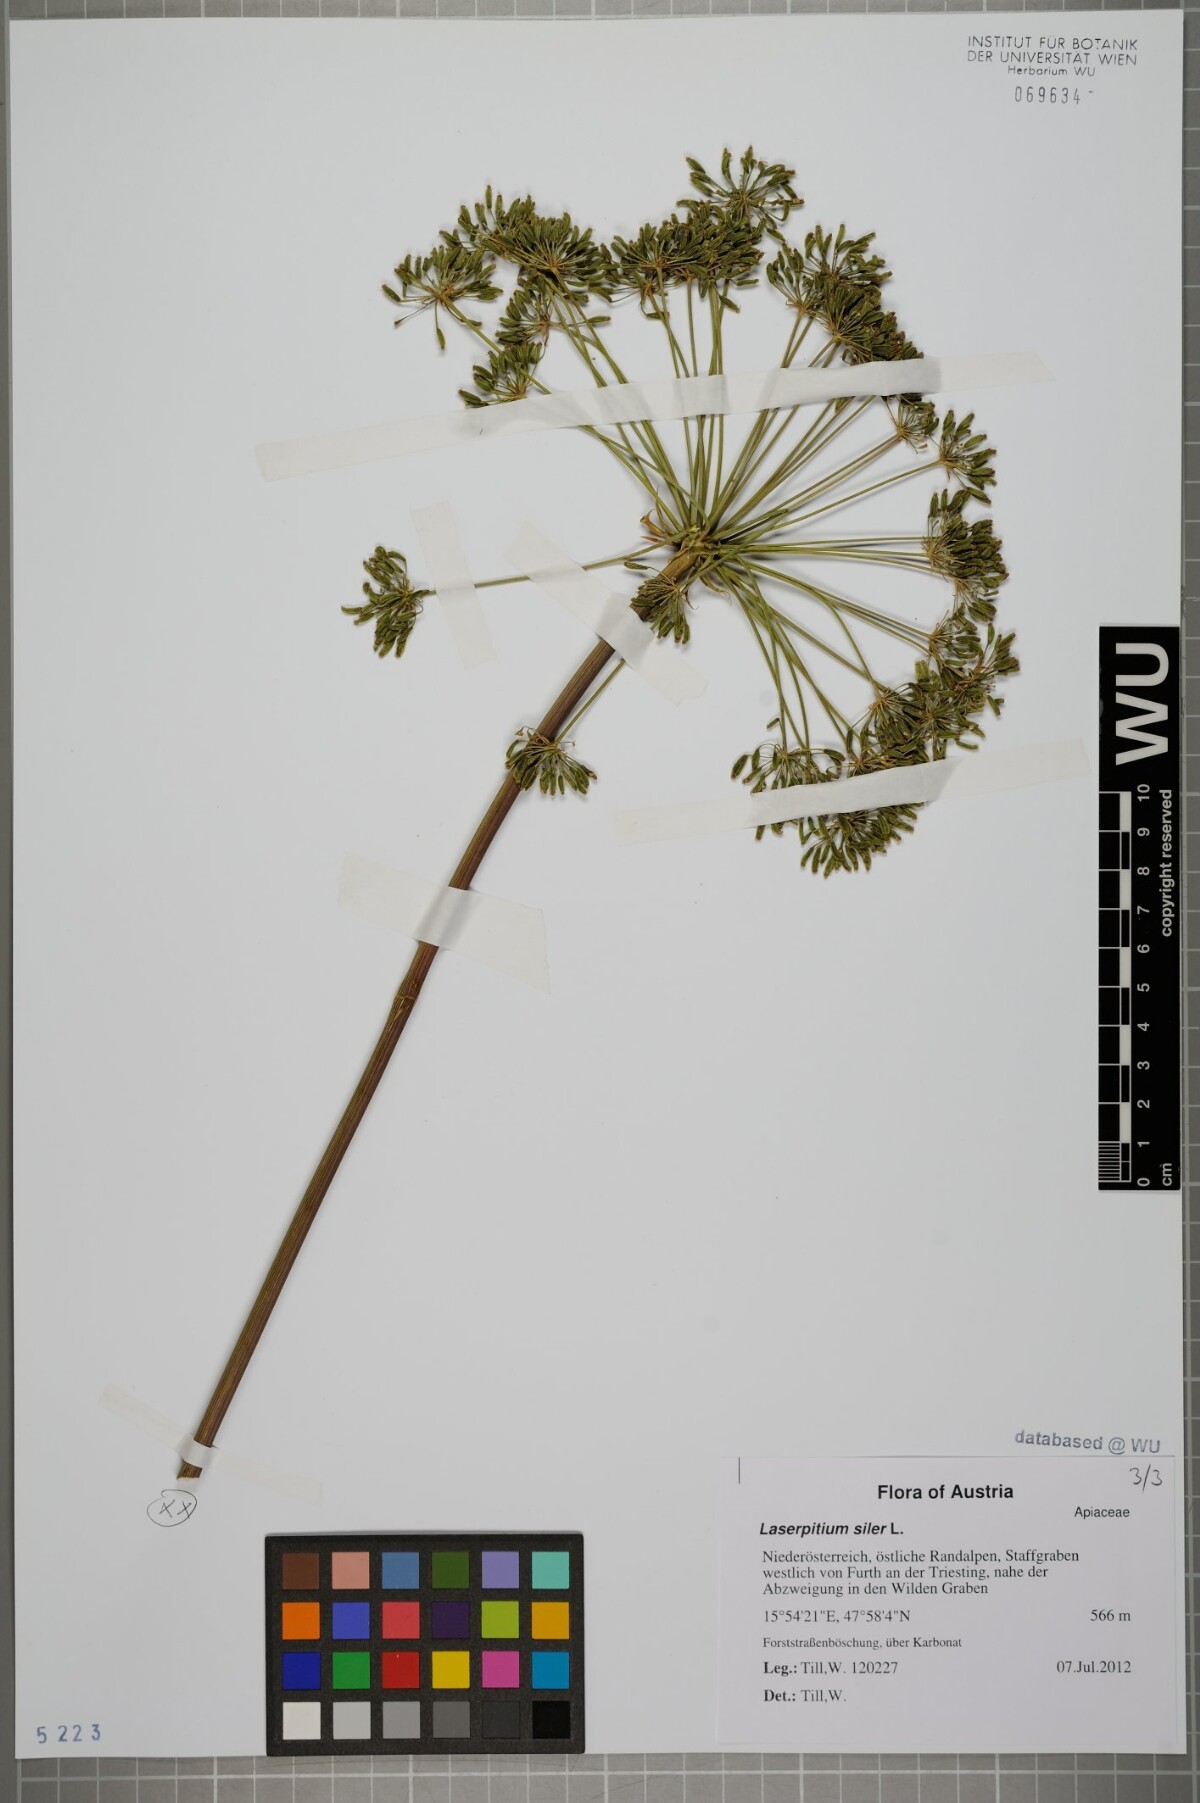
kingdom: Plantae
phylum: Tracheophyta
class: Magnoliopsida
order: Apiales
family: Apiaceae
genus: Siler
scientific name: Siler montanum
